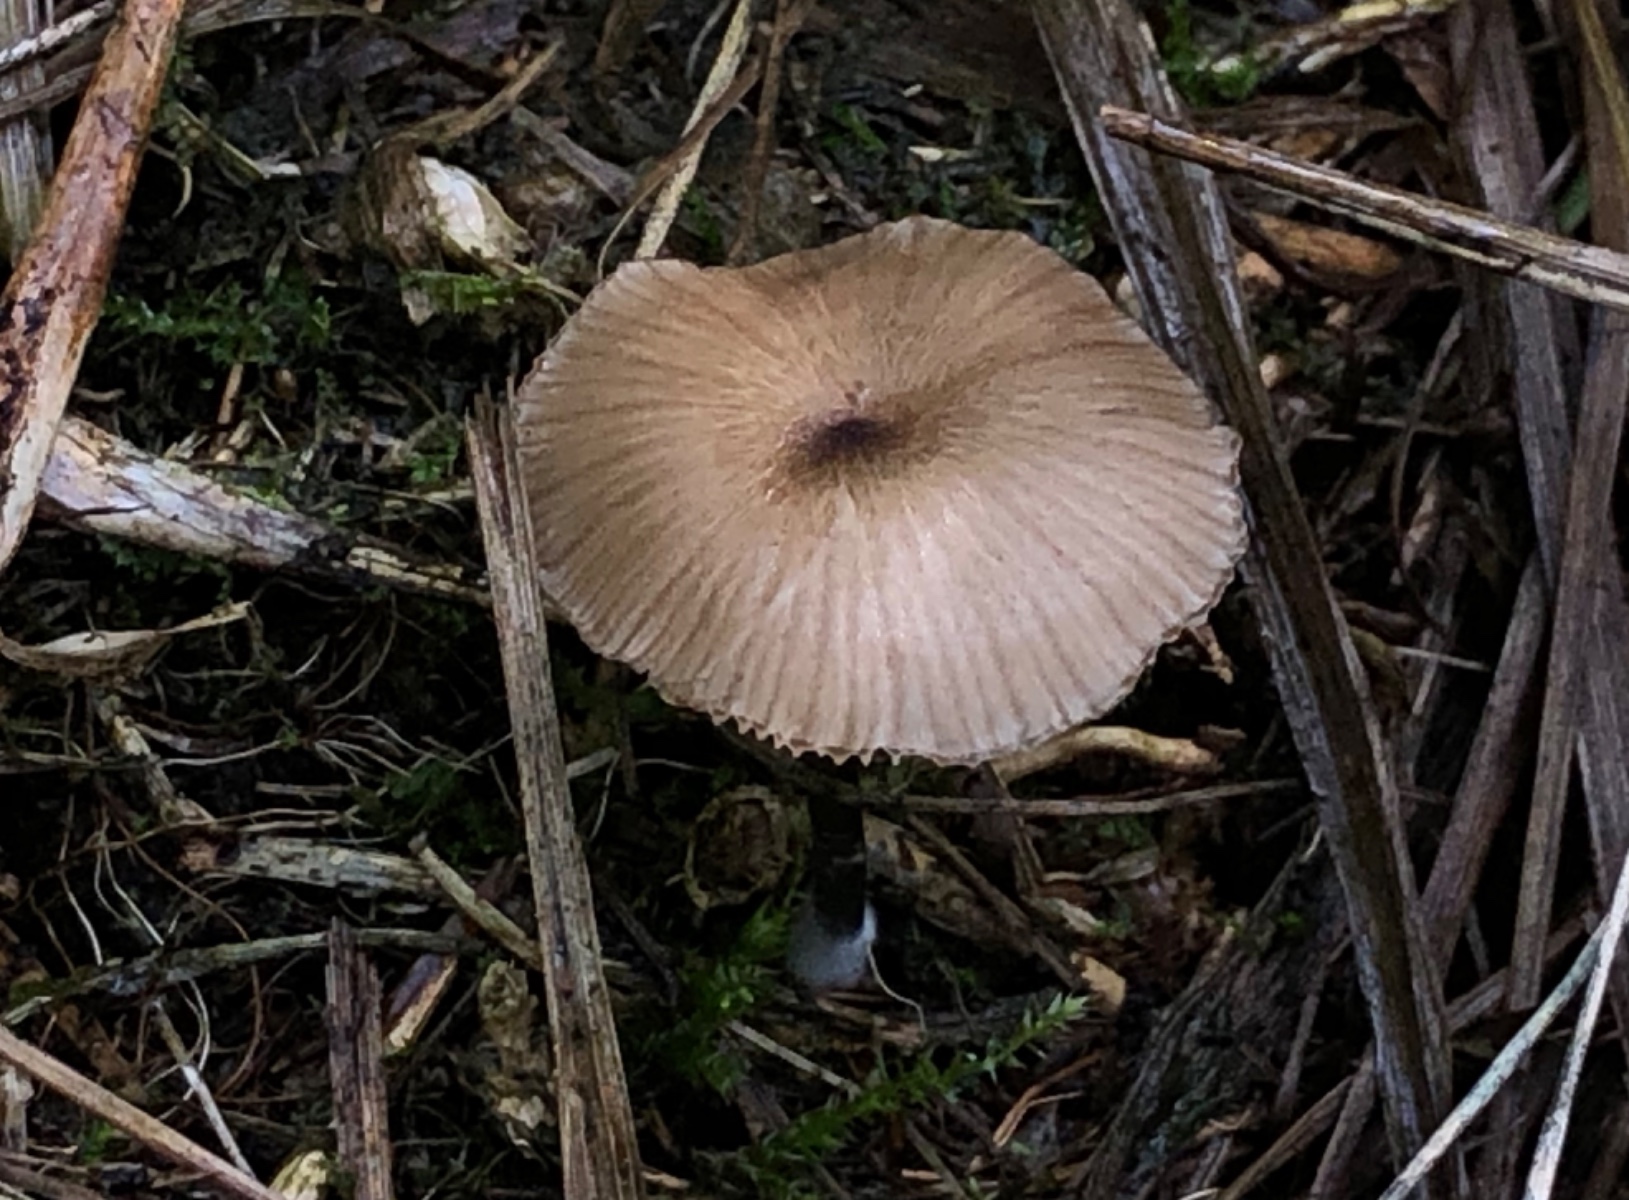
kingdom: Fungi
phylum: Basidiomycota
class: Agaricomycetes
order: Agaricales
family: Entolomataceae
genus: Entoloma
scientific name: Entoloma
